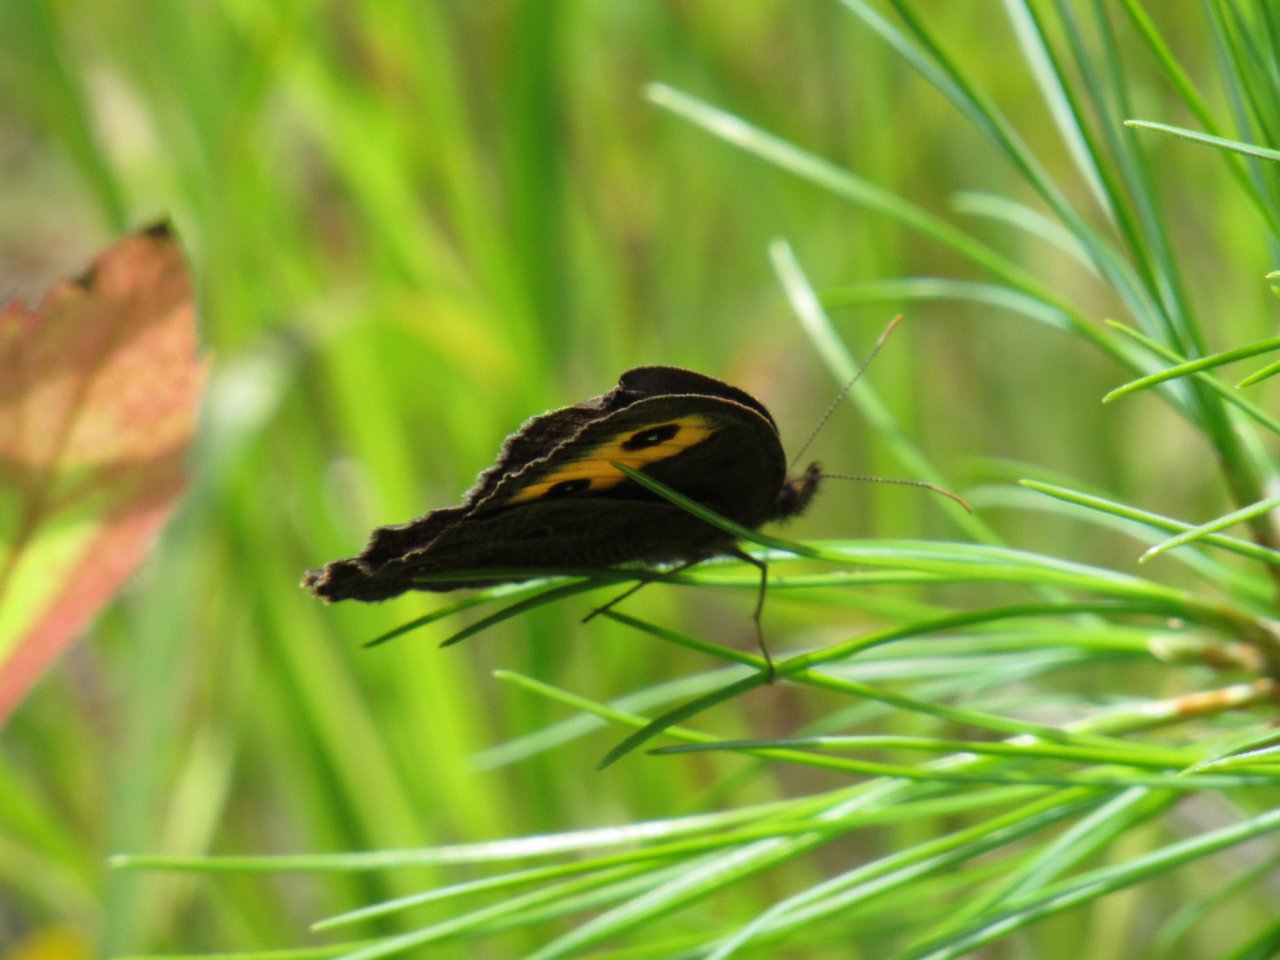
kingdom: Animalia
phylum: Arthropoda
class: Insecta
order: Lepidoptera
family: Nymphalidae
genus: Cercyonis
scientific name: Cercyonis pegala
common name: Common Wood-Nymph
